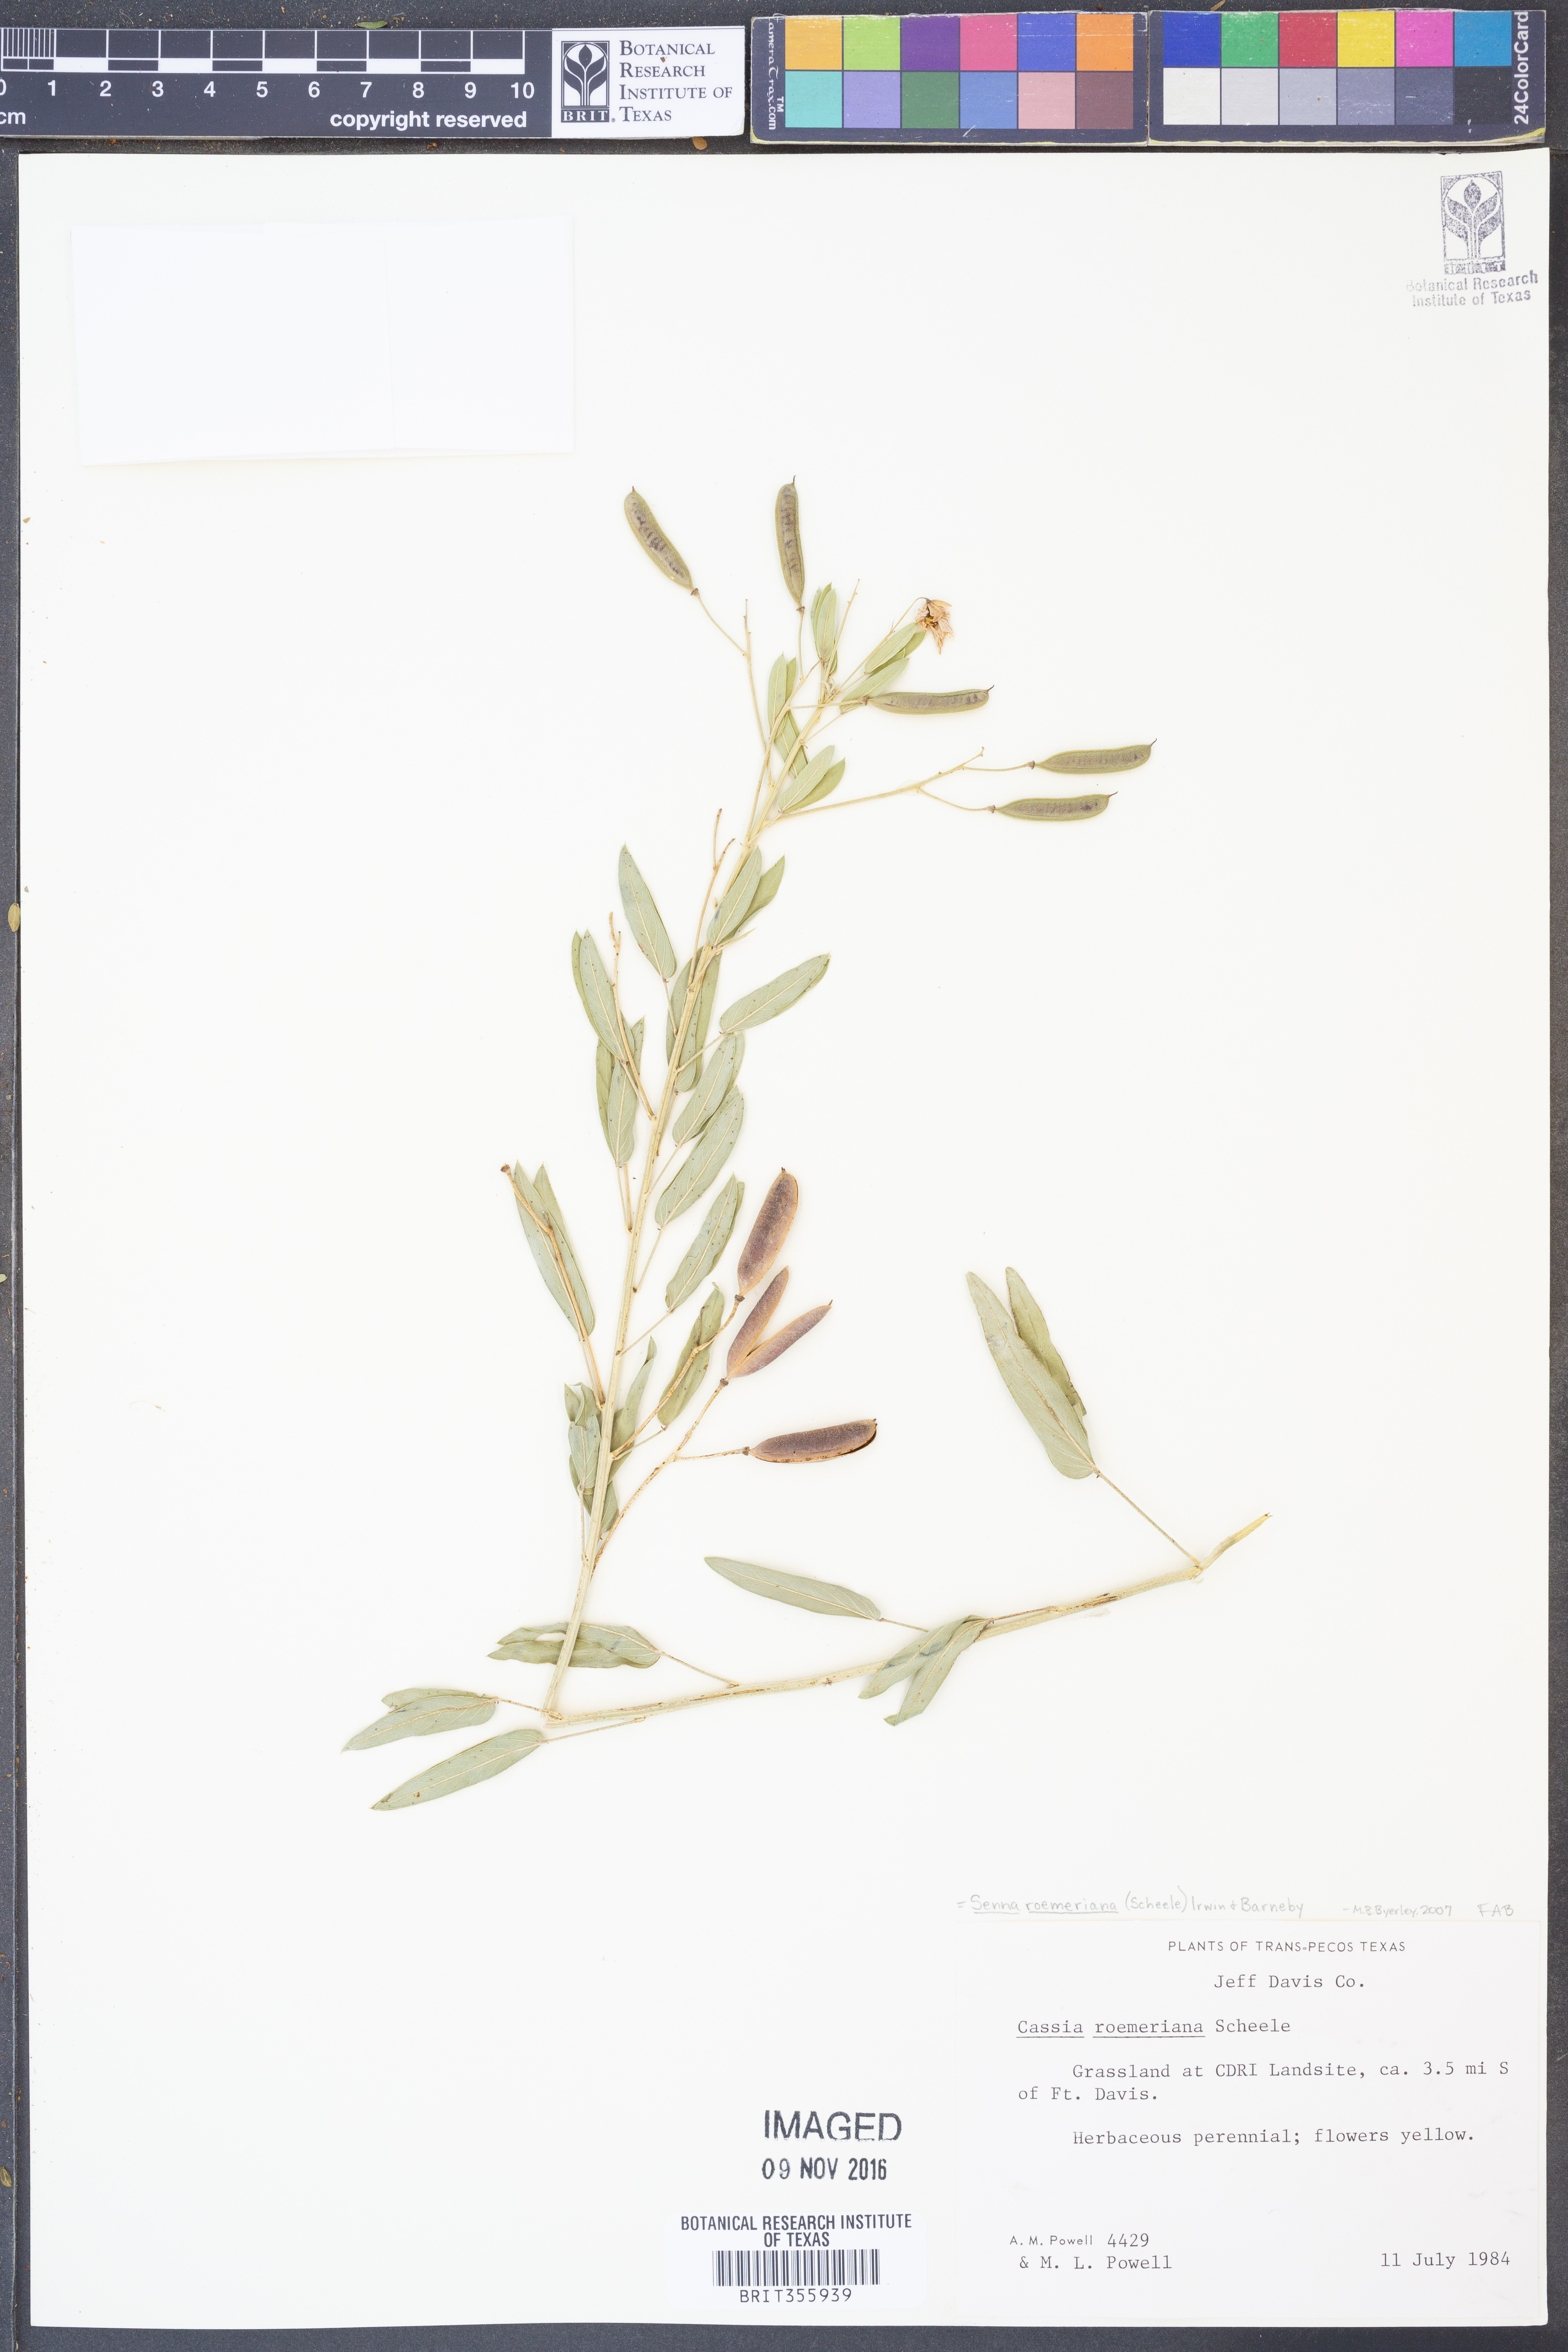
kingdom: Plantae
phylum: Tracheophyta
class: Magnoliopsida
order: Fabales
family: Fabaceae
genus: Senna
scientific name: Senna roemeriana
